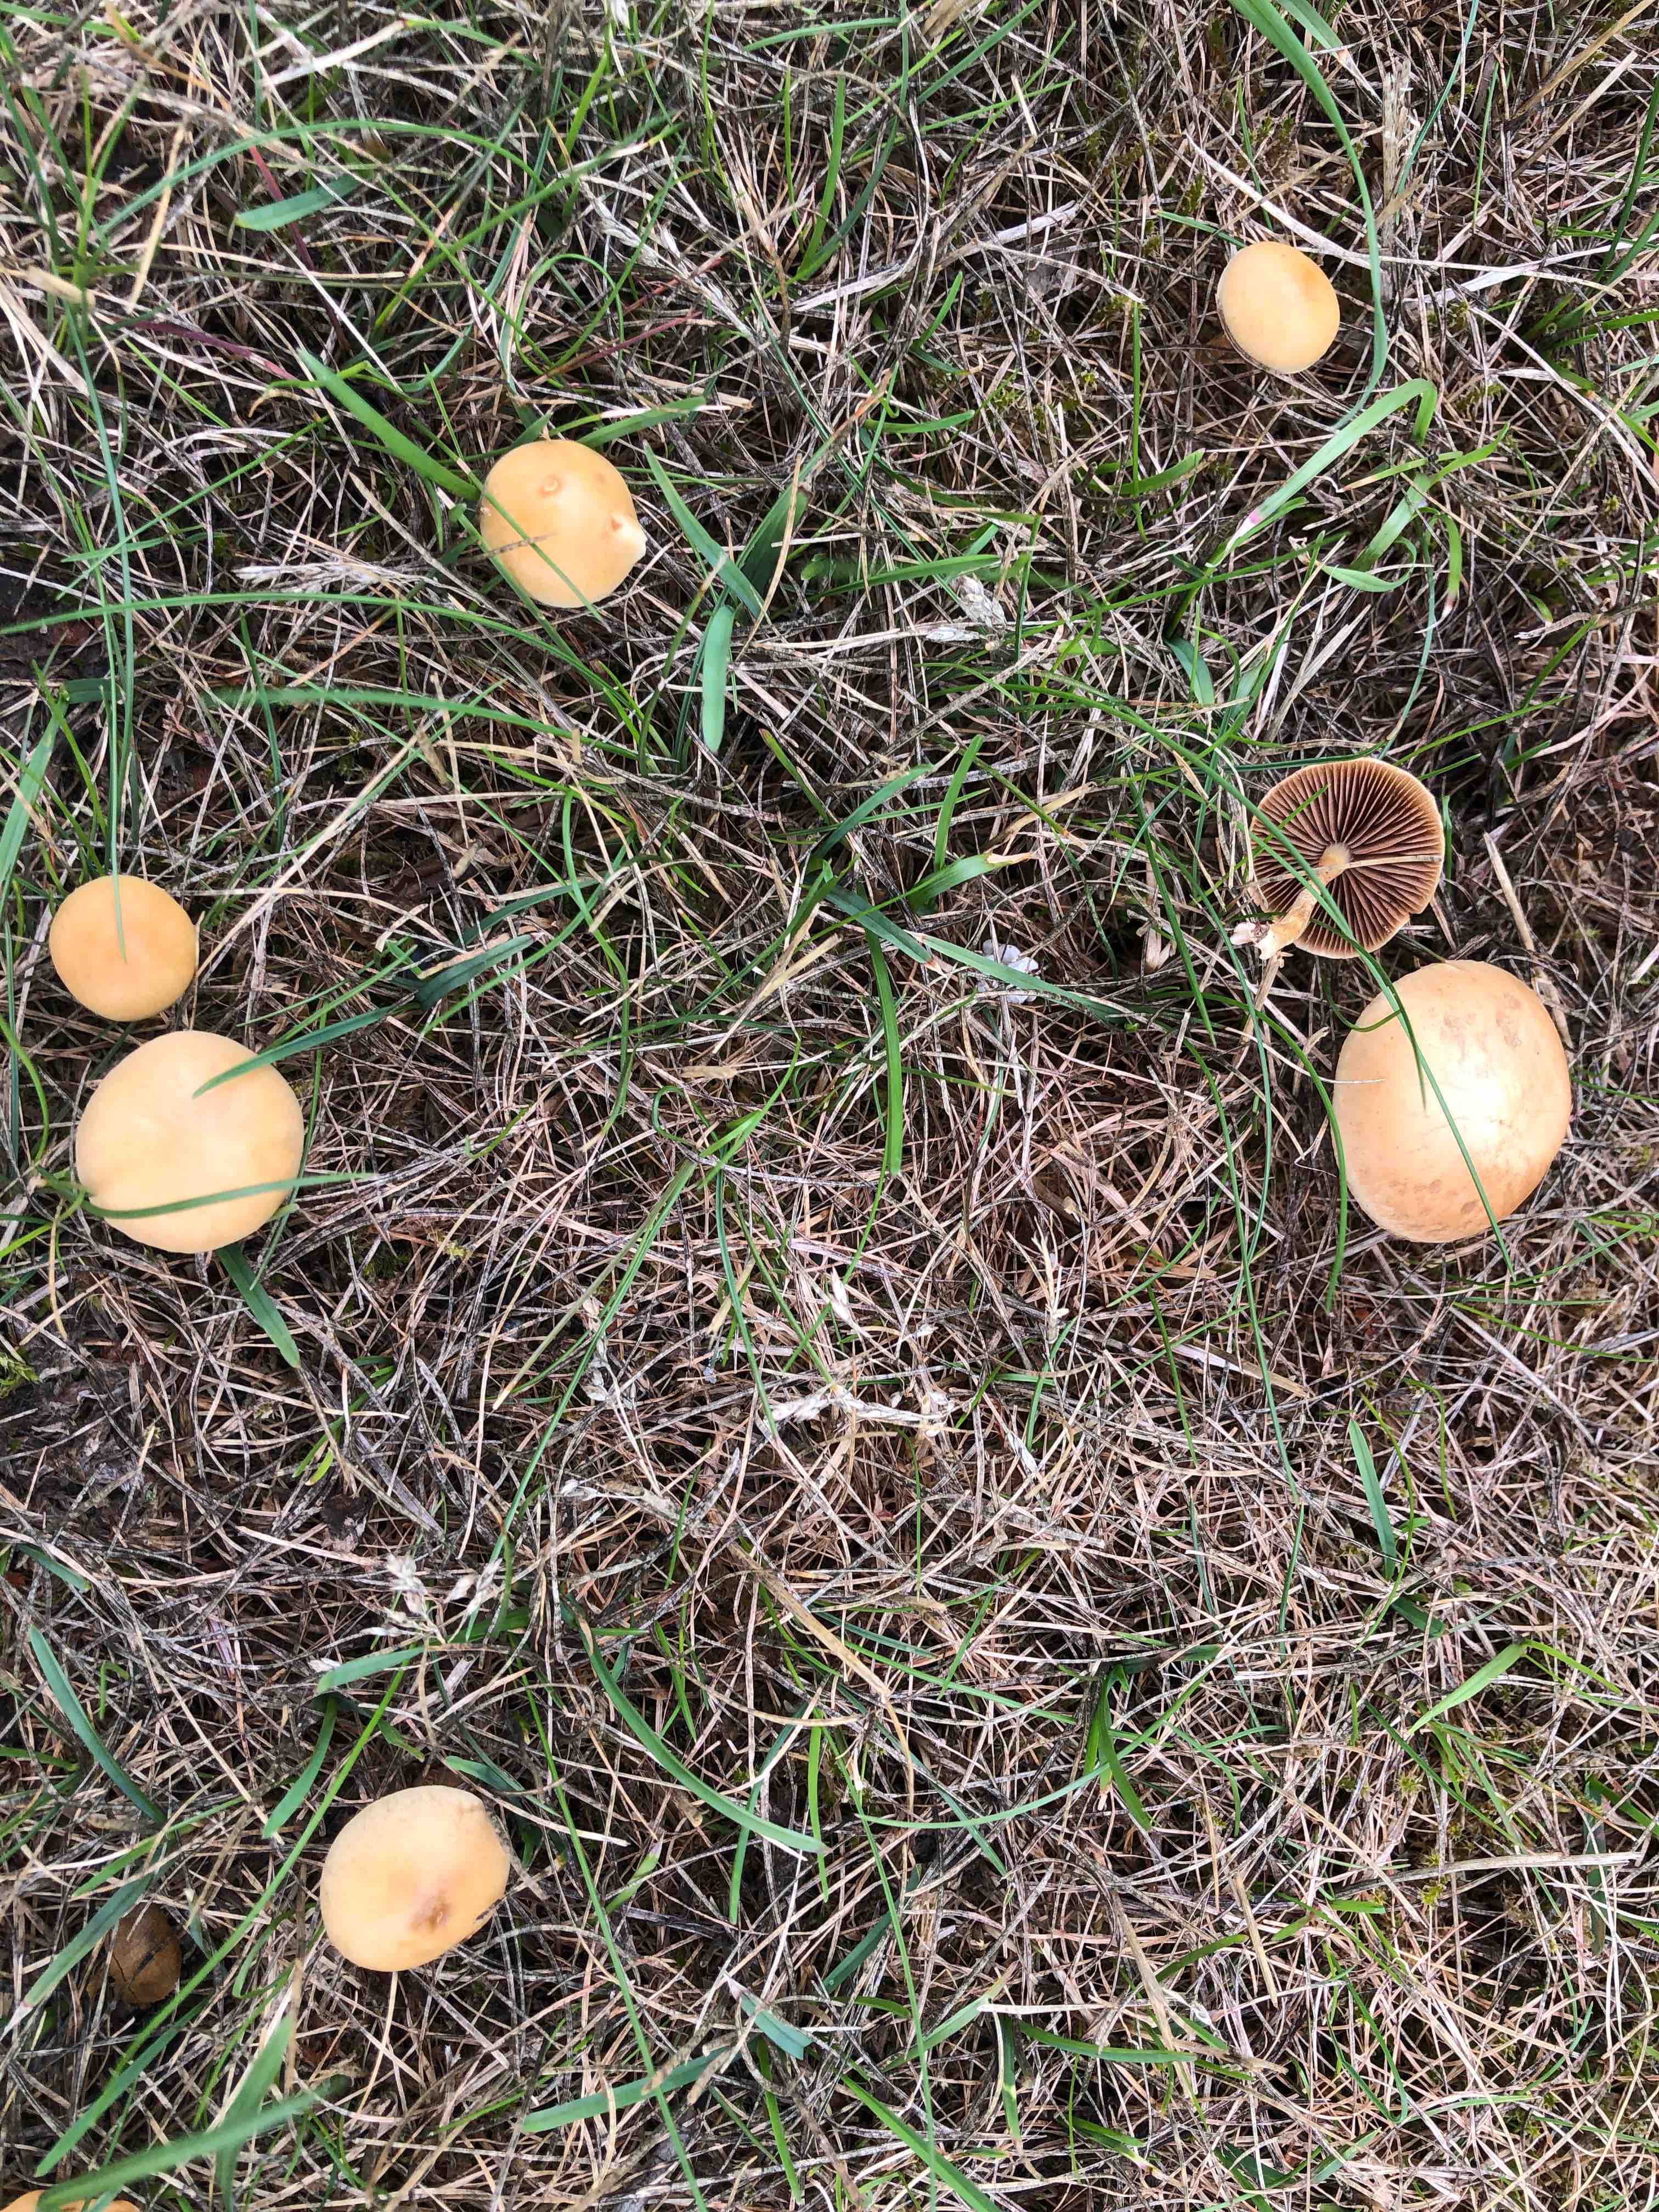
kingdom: Fungi
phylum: Basidiomycota
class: Agaricomycetes
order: Agaricales
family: Strophariaceae
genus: Agrocybe
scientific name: Agrocybe pediades
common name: almindelig agerhat
